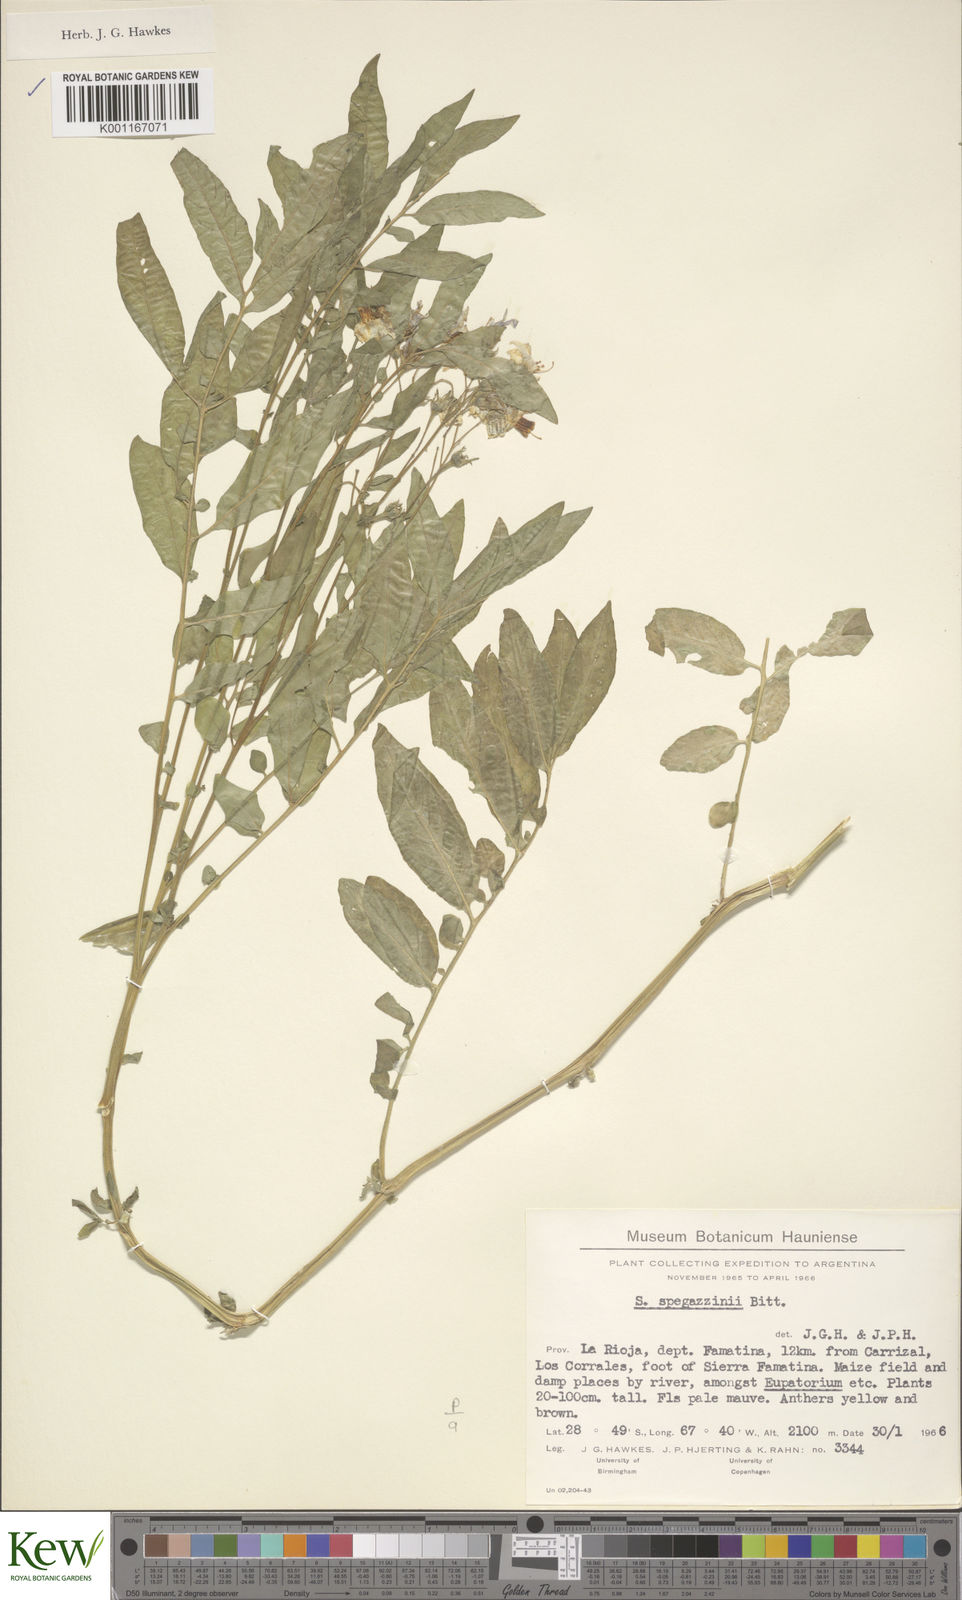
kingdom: Plantae
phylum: Tracheophyta
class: Magnoliopsida
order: Solanales
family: Solanaceae
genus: Solanum
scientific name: Solanum brevicaule
